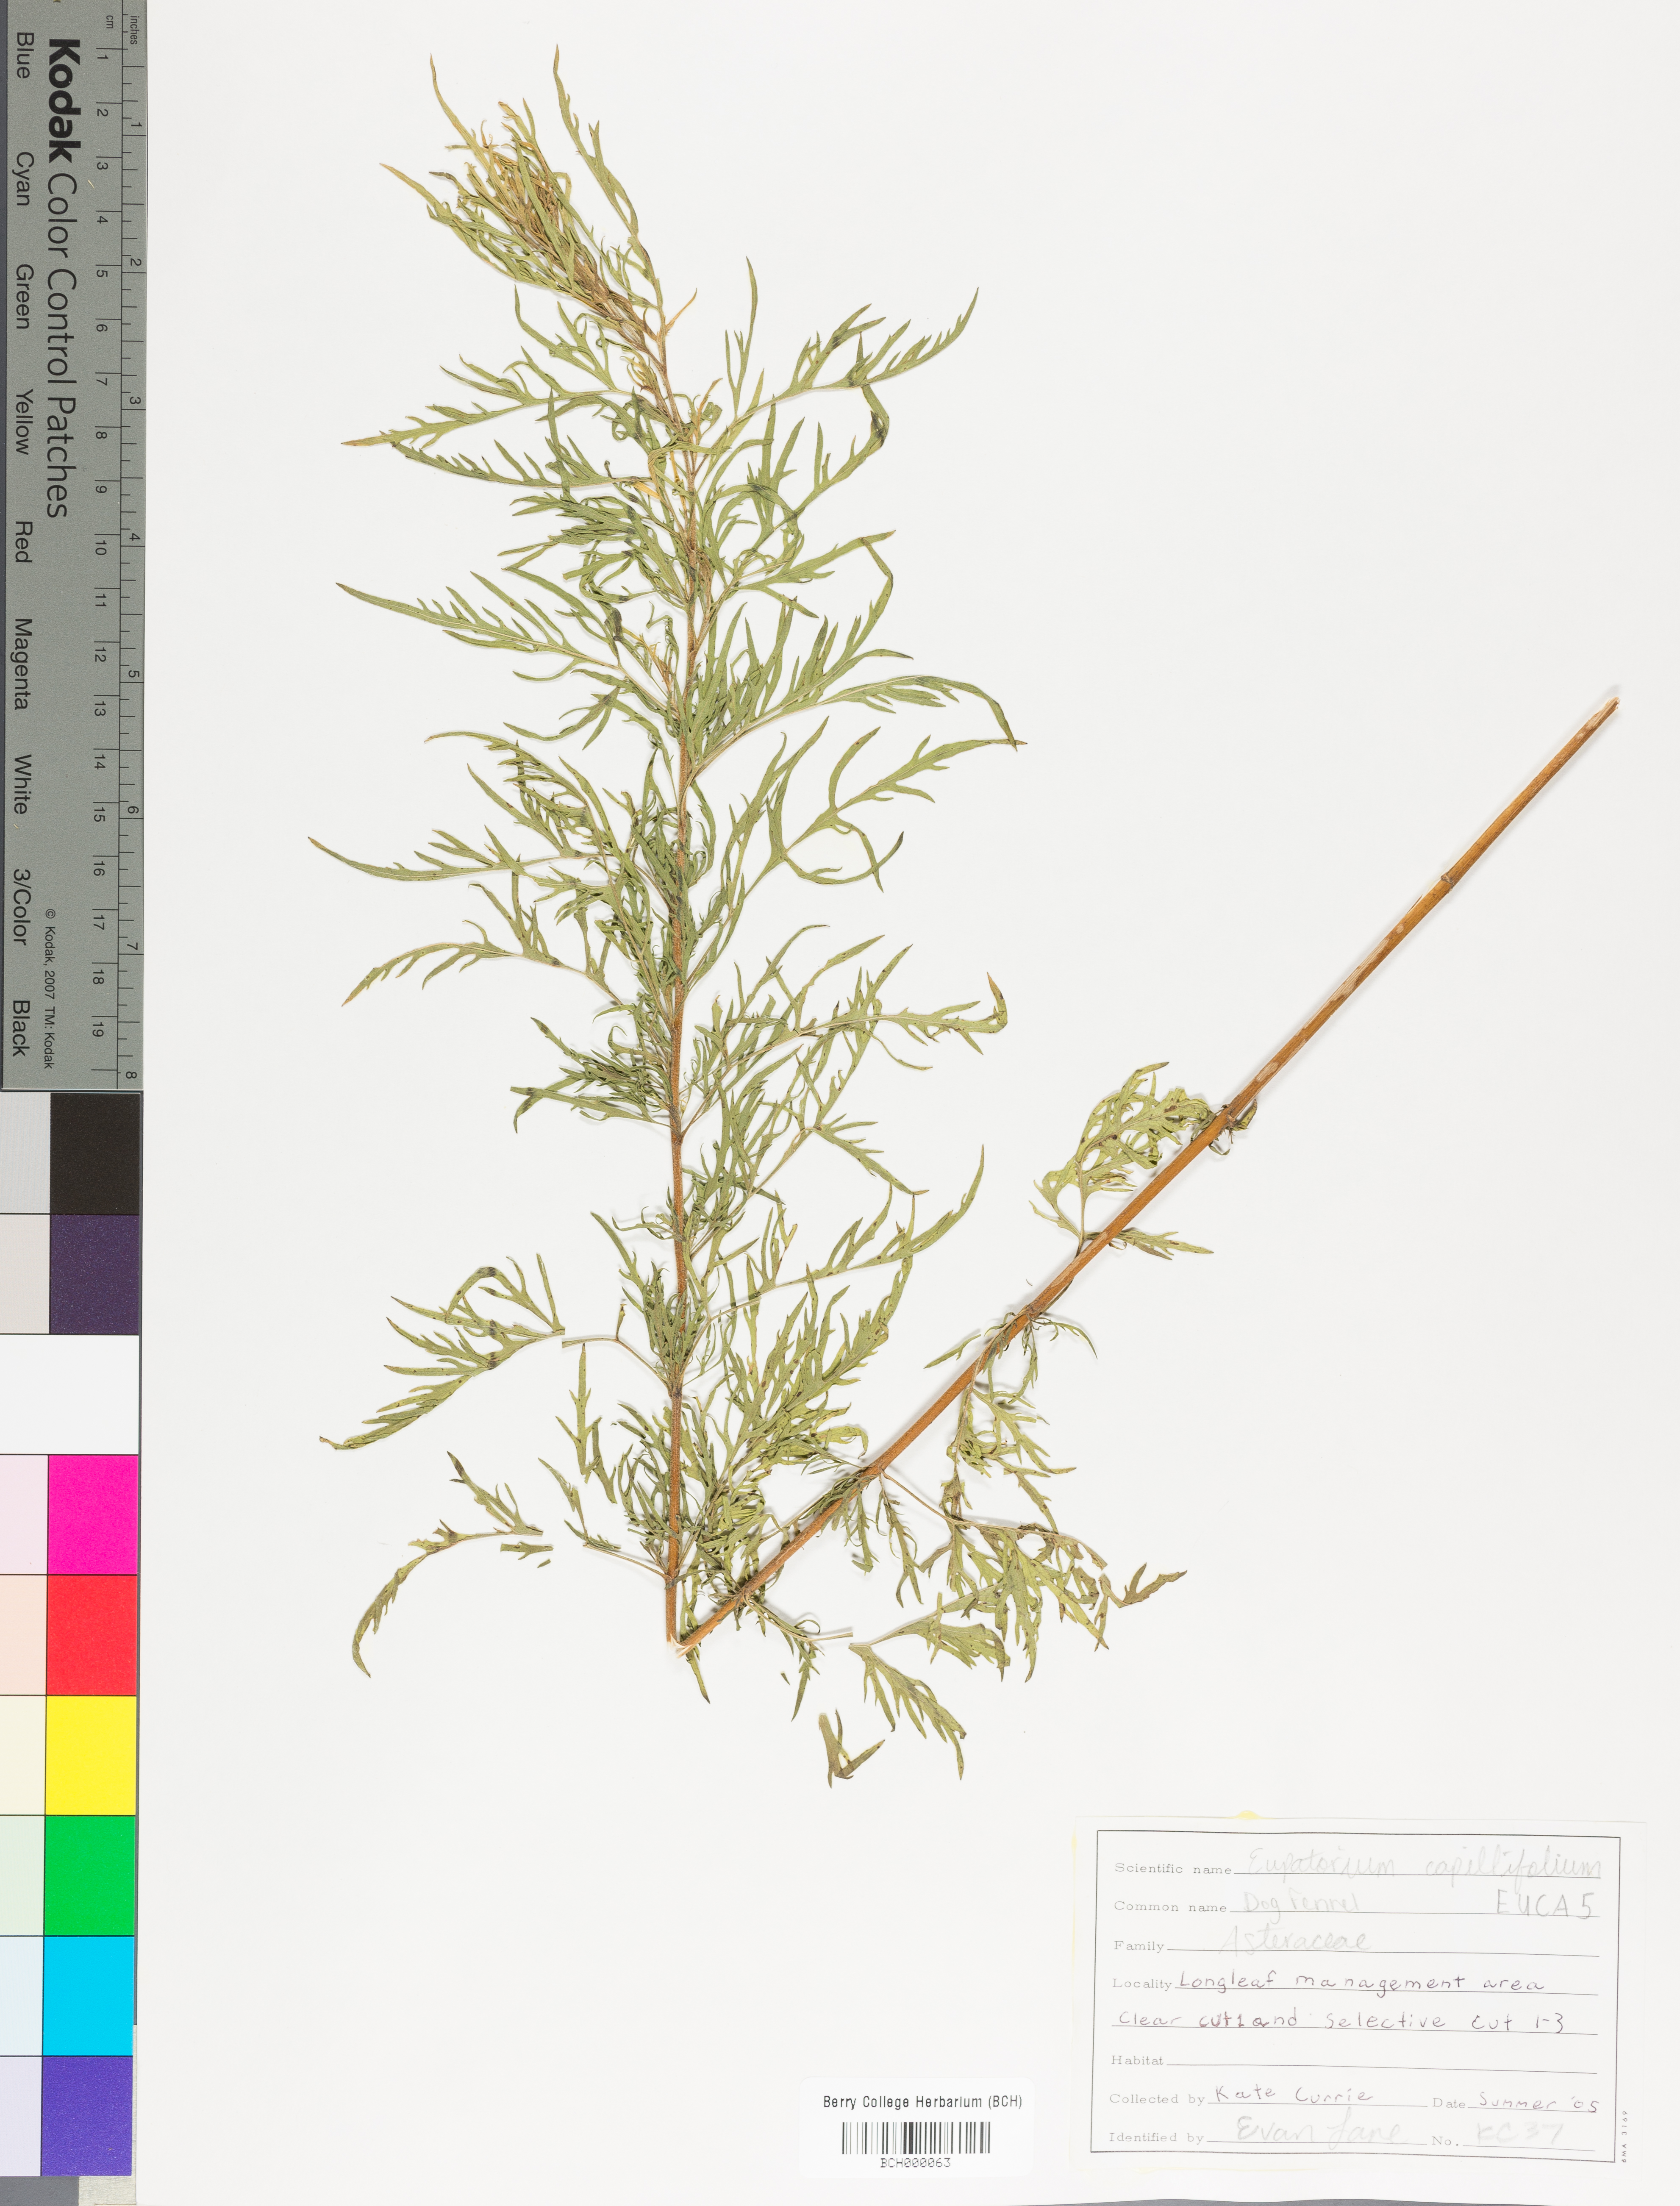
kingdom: Plantae
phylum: Tracheophyta
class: Magnoliopsida
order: Asterales
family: Asteraceae
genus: Eupatorium
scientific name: Eupatorium capillifolium
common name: Dog-fennel
